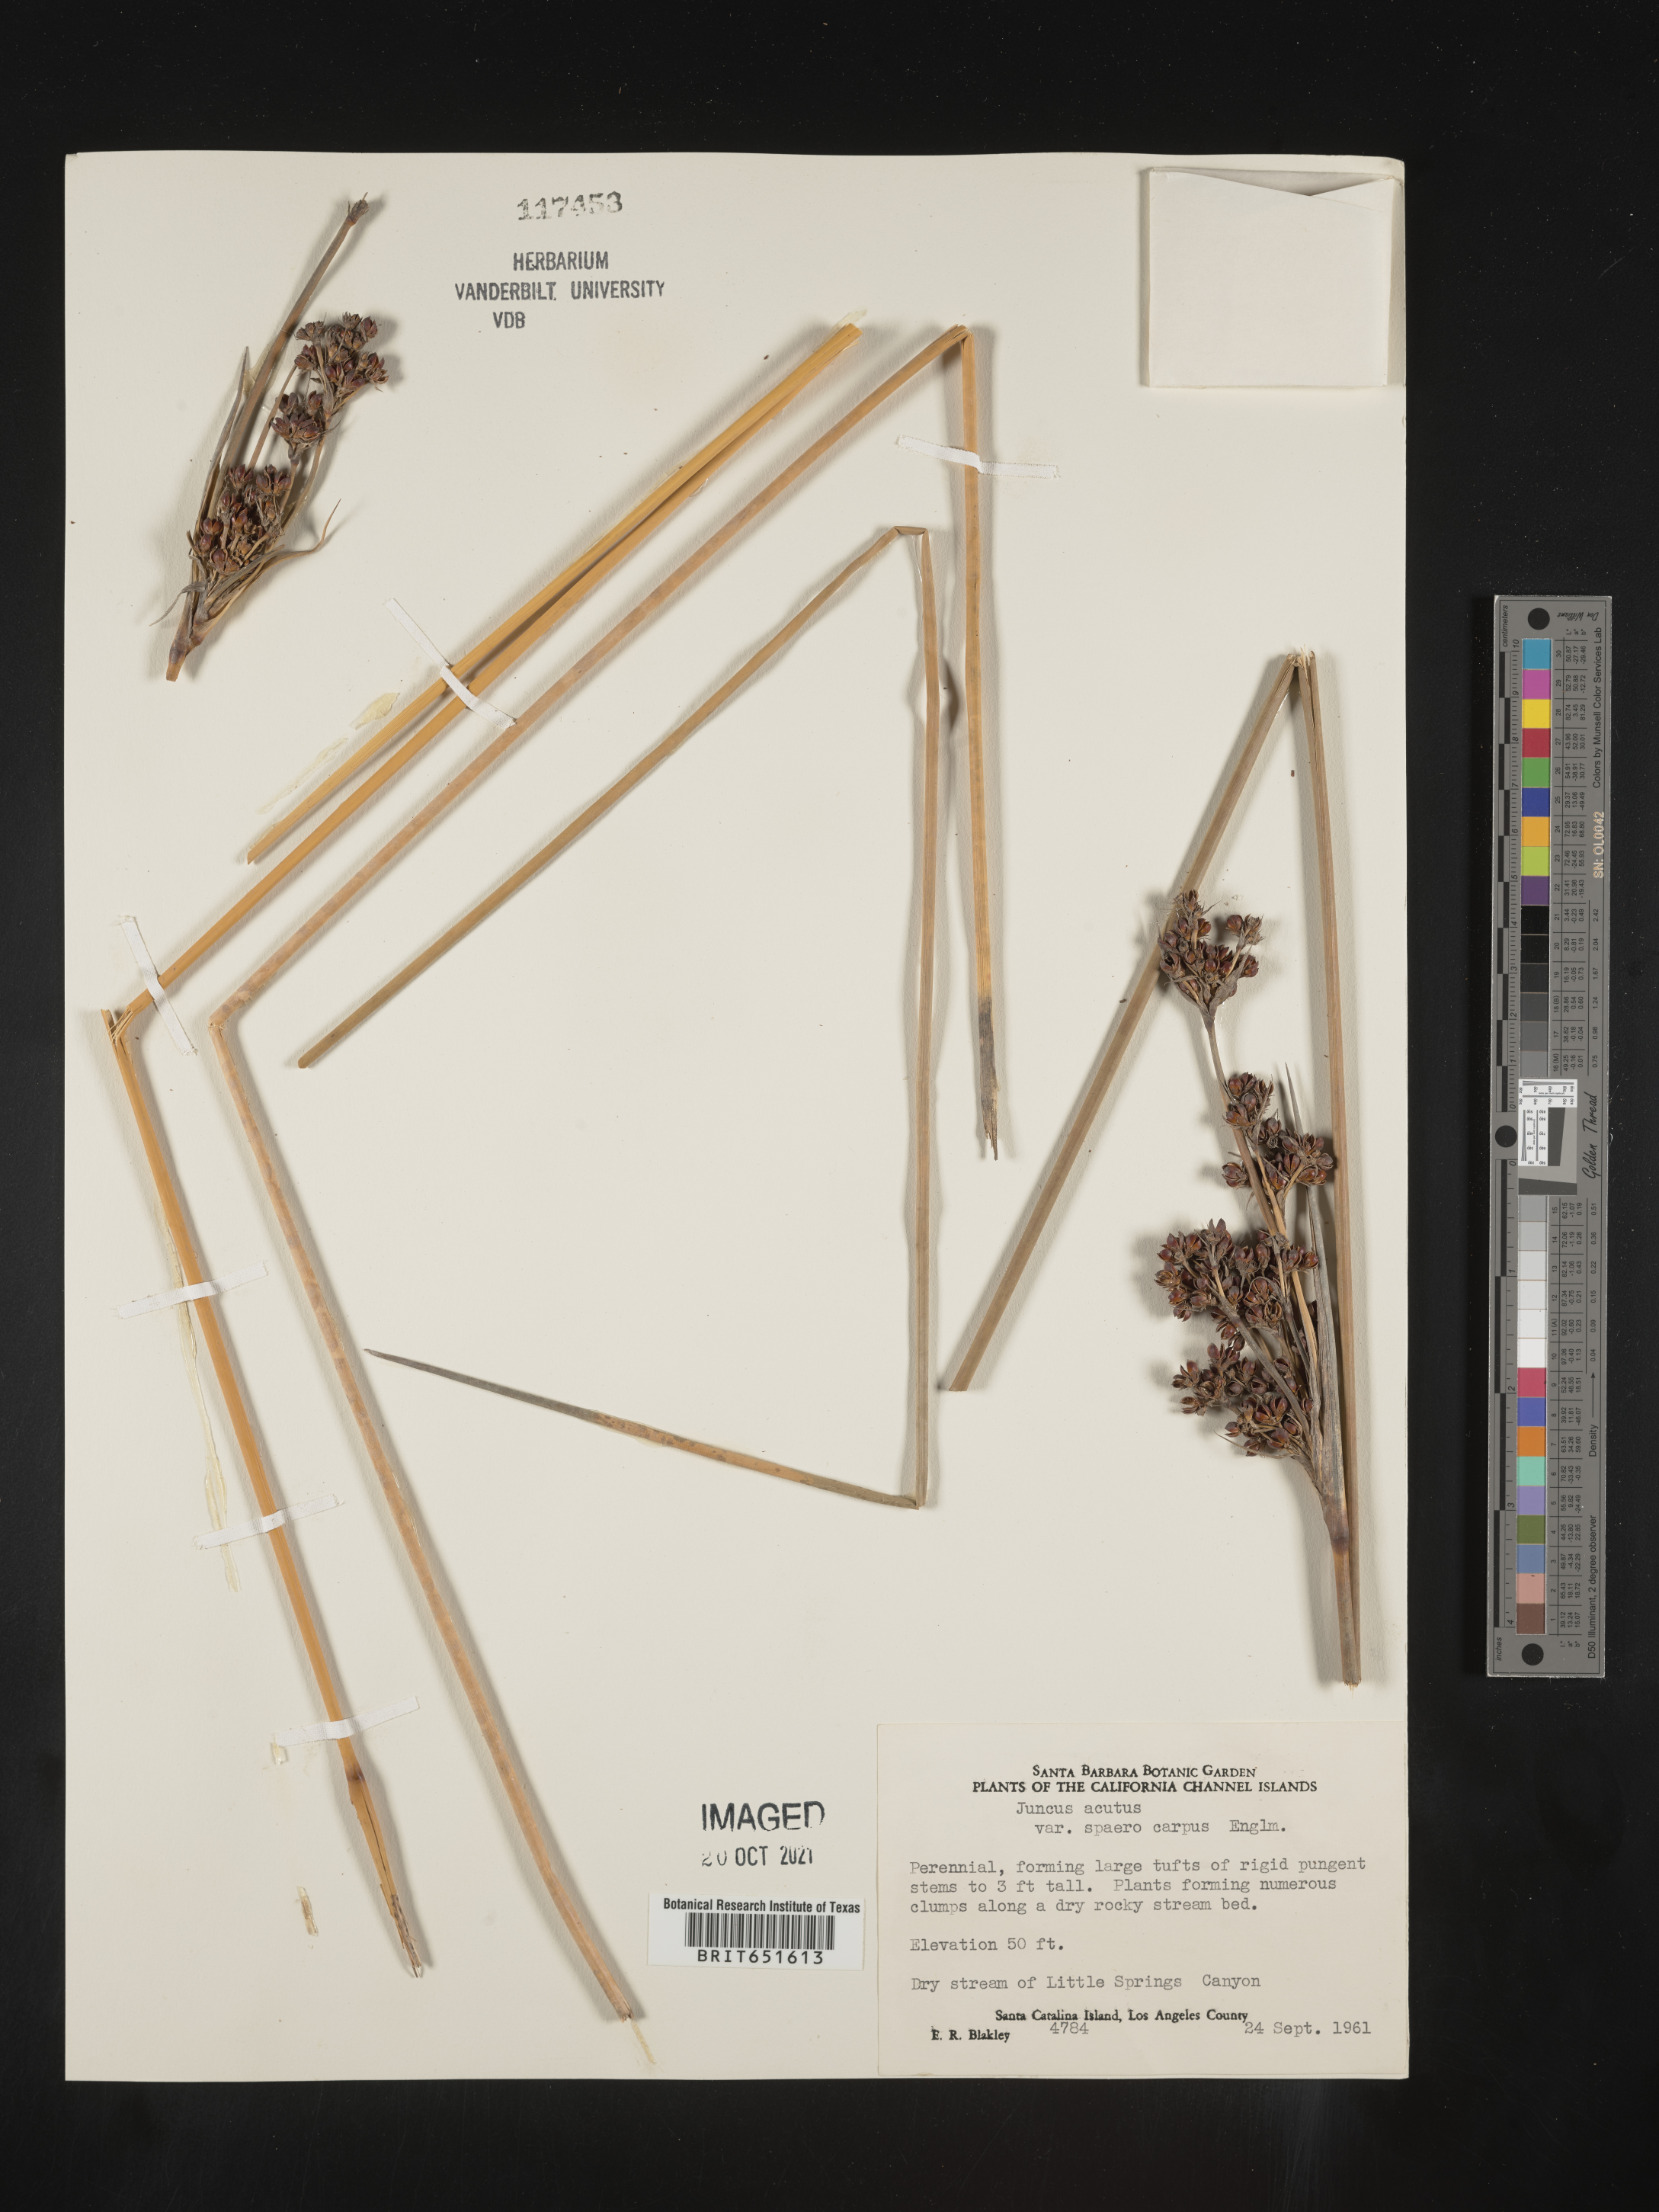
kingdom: Plantae
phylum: Tracheophyta
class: Liliopsida
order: Poales
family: Juncaceae
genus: Juncus
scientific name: Juncus acutus
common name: Sharp rush
